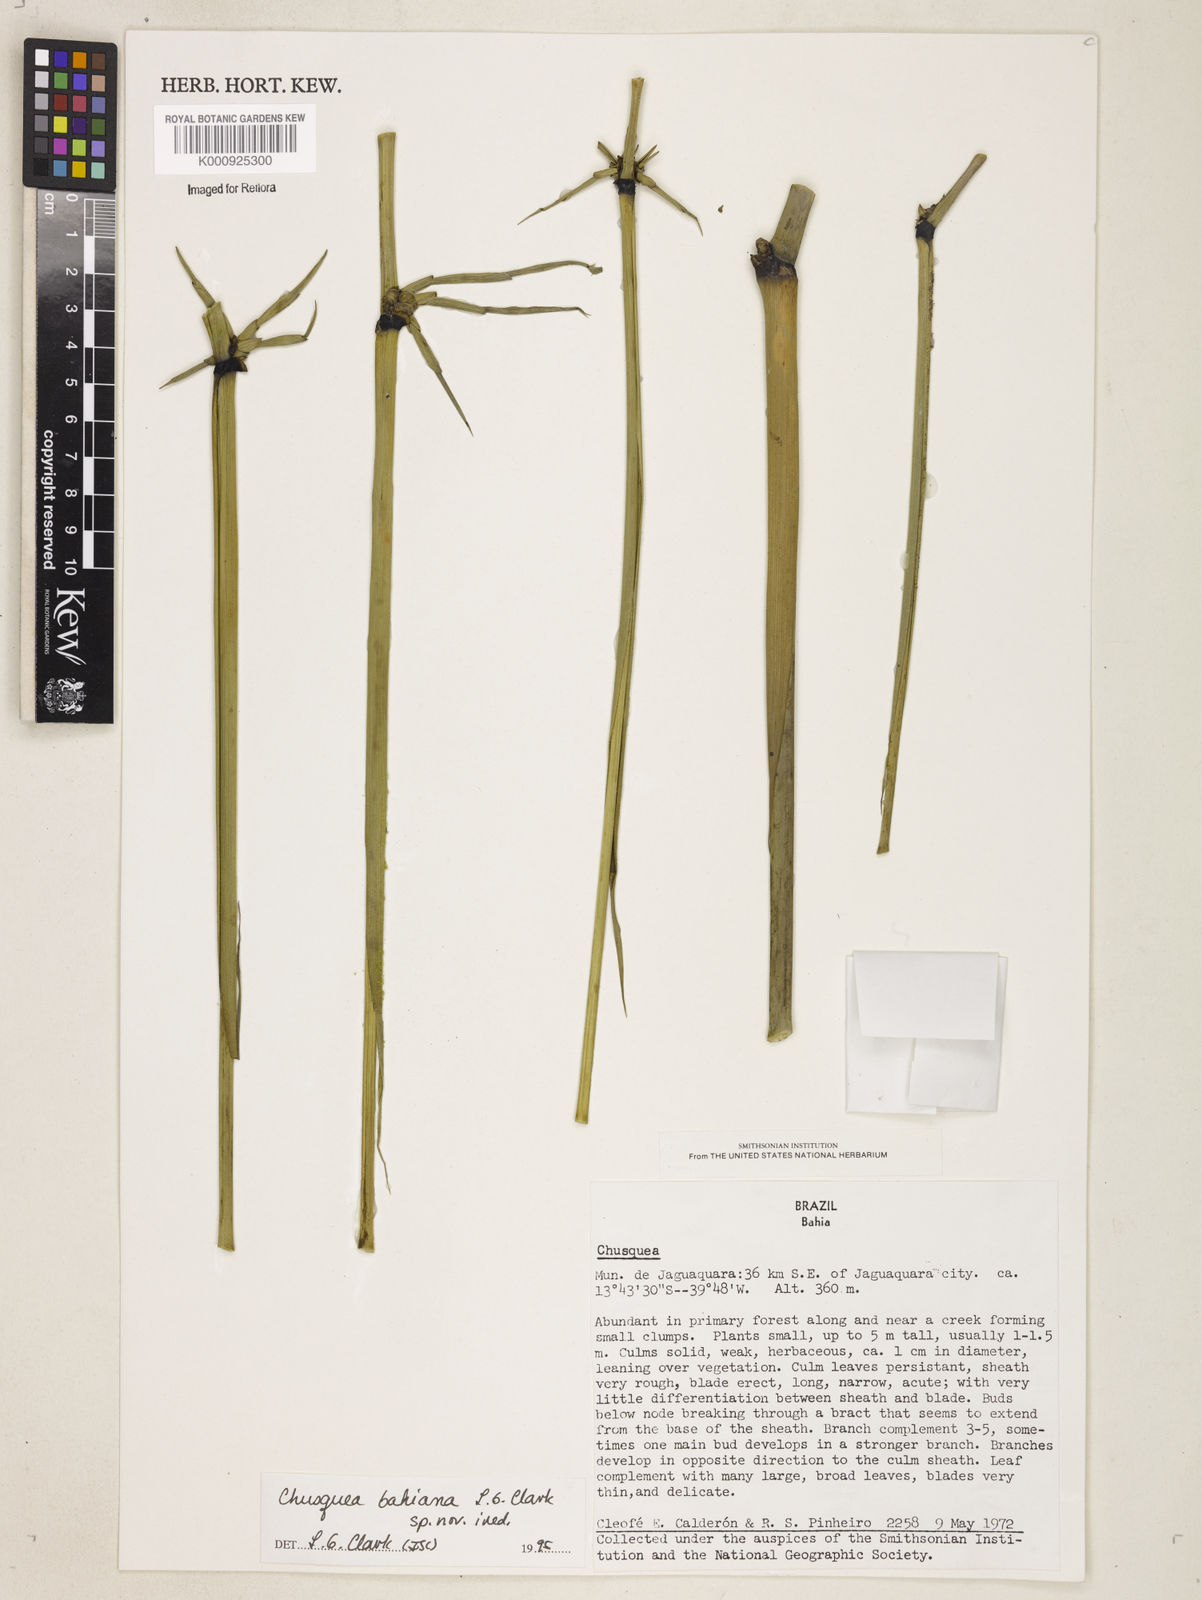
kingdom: Plantae
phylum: Tracheophyta
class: Liliopsida
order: Poales
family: Poaceae
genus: Chusquea
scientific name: Chusquea bahiana
